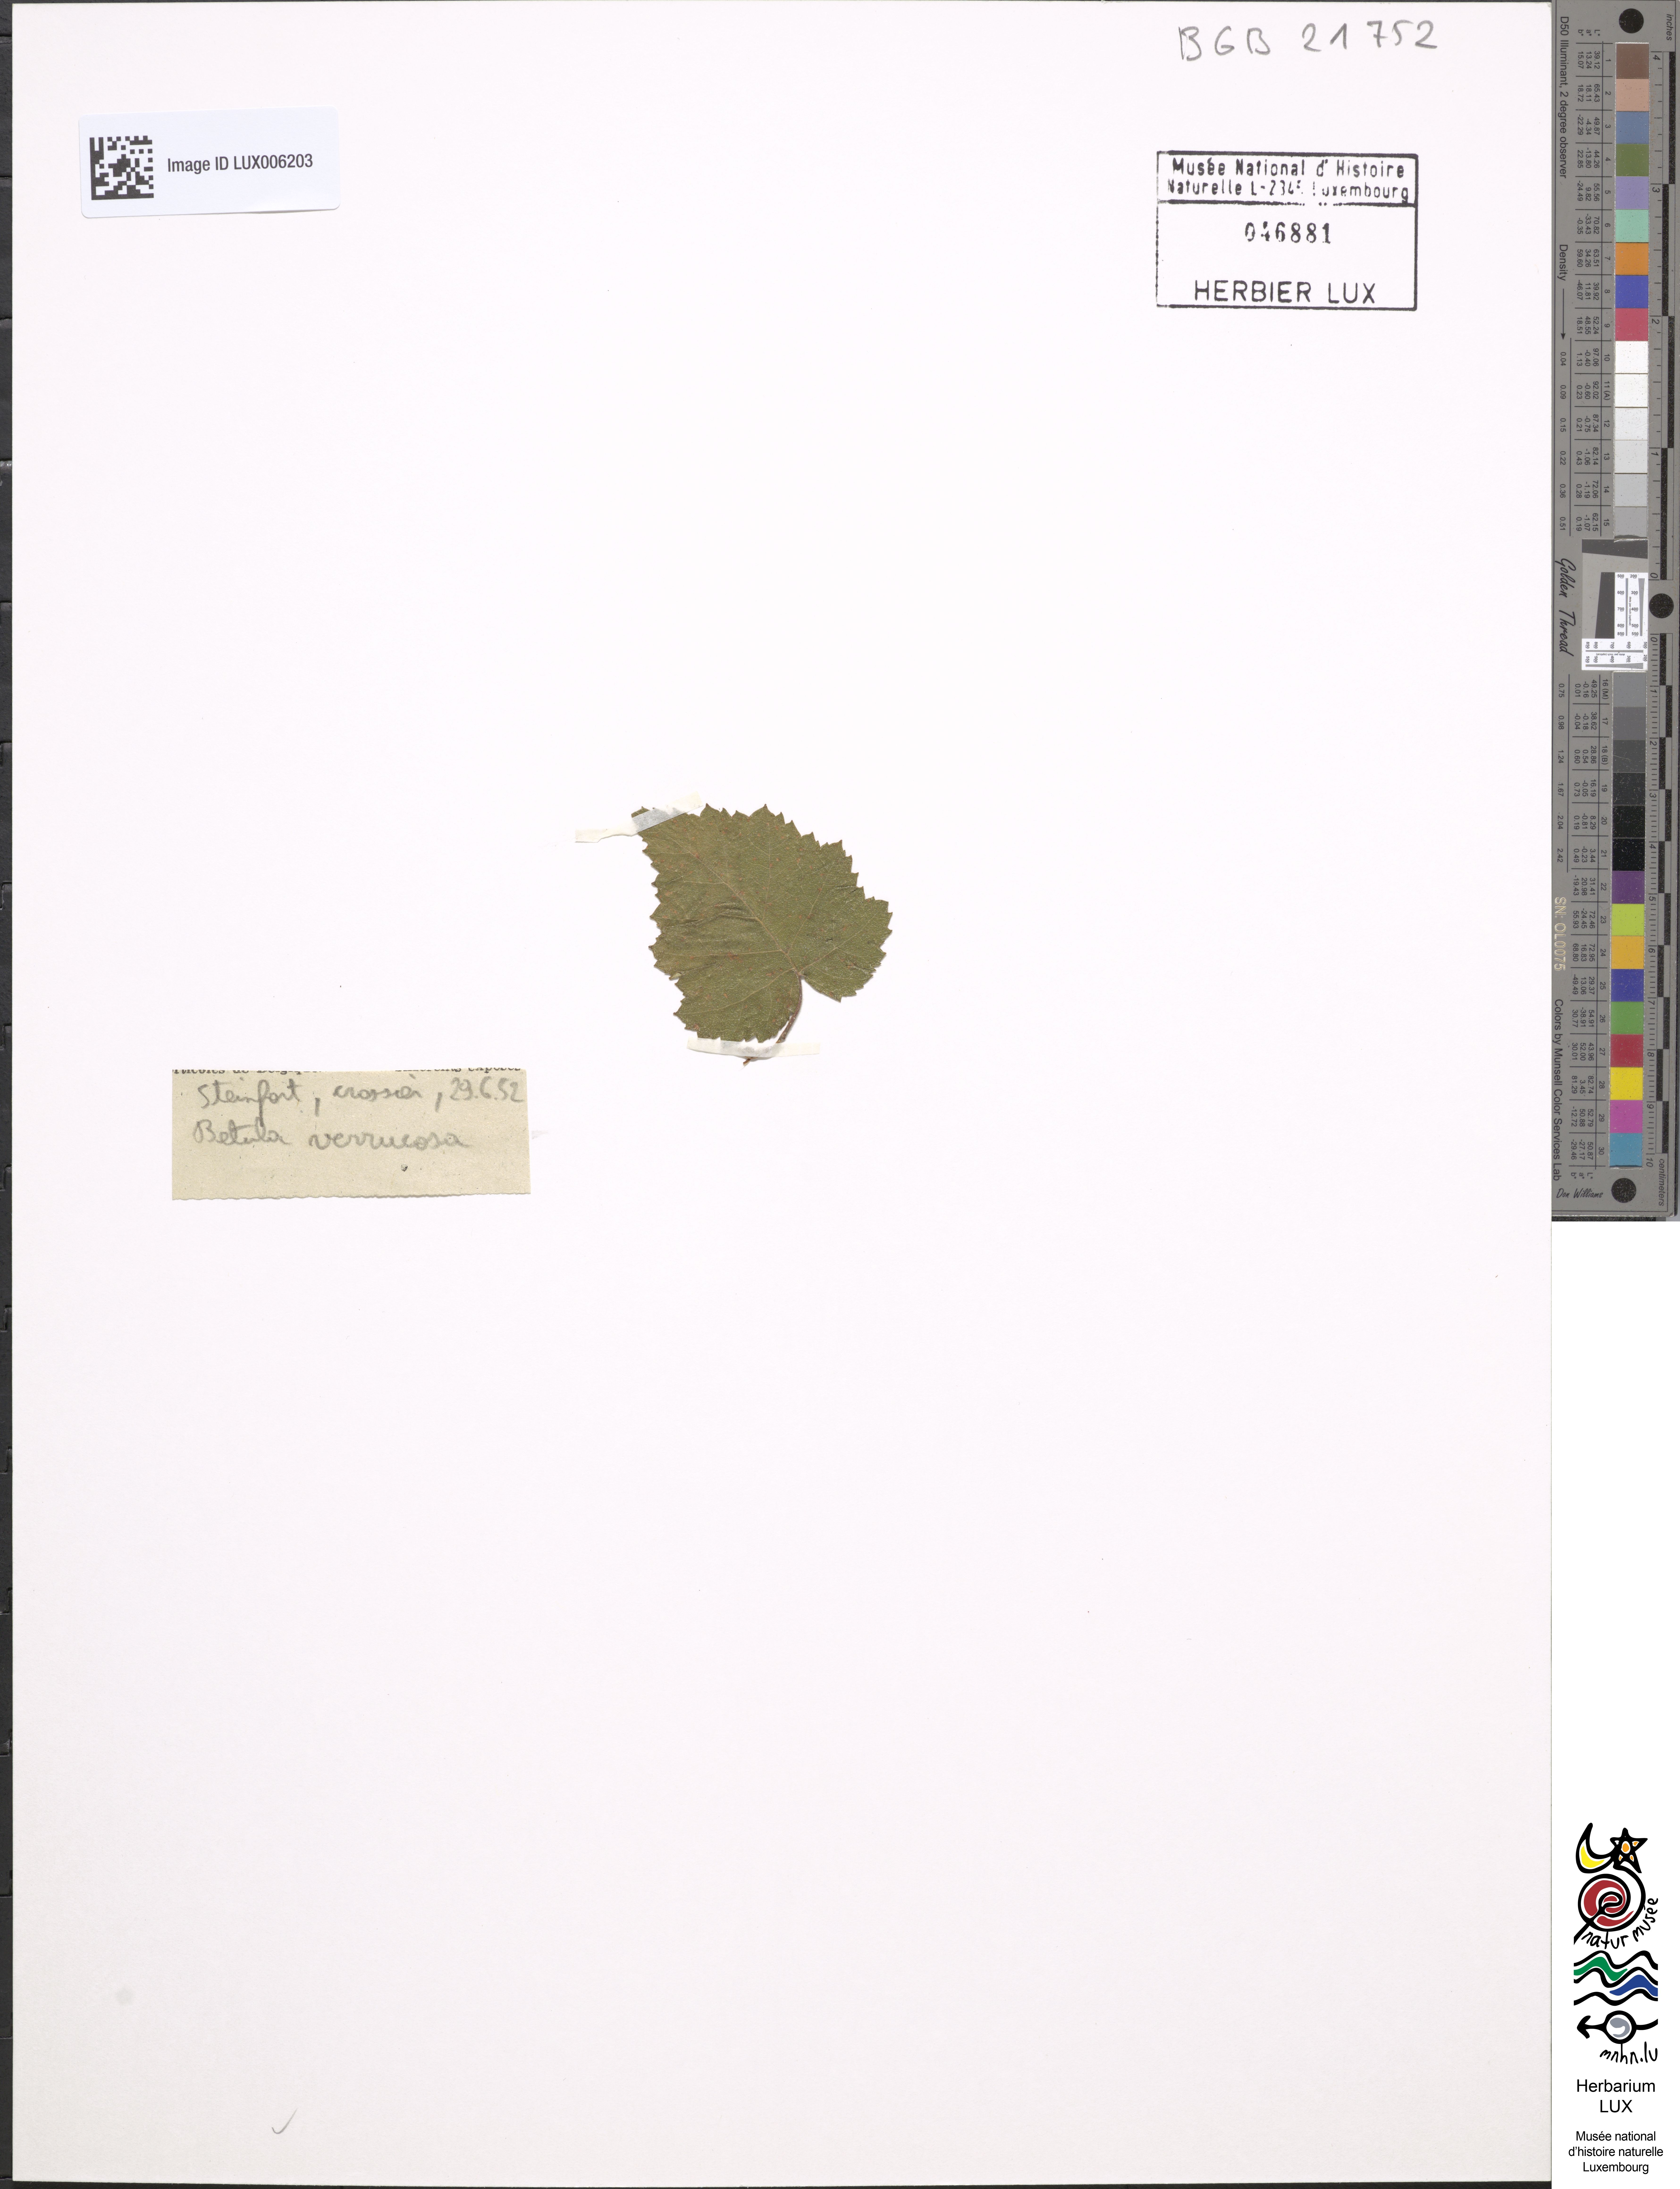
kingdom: Plantae
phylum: Tracheophyta
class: Magnoliopsida
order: Fagales
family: Betulaceae
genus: Betula
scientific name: Betula pendula
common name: Silver birch
